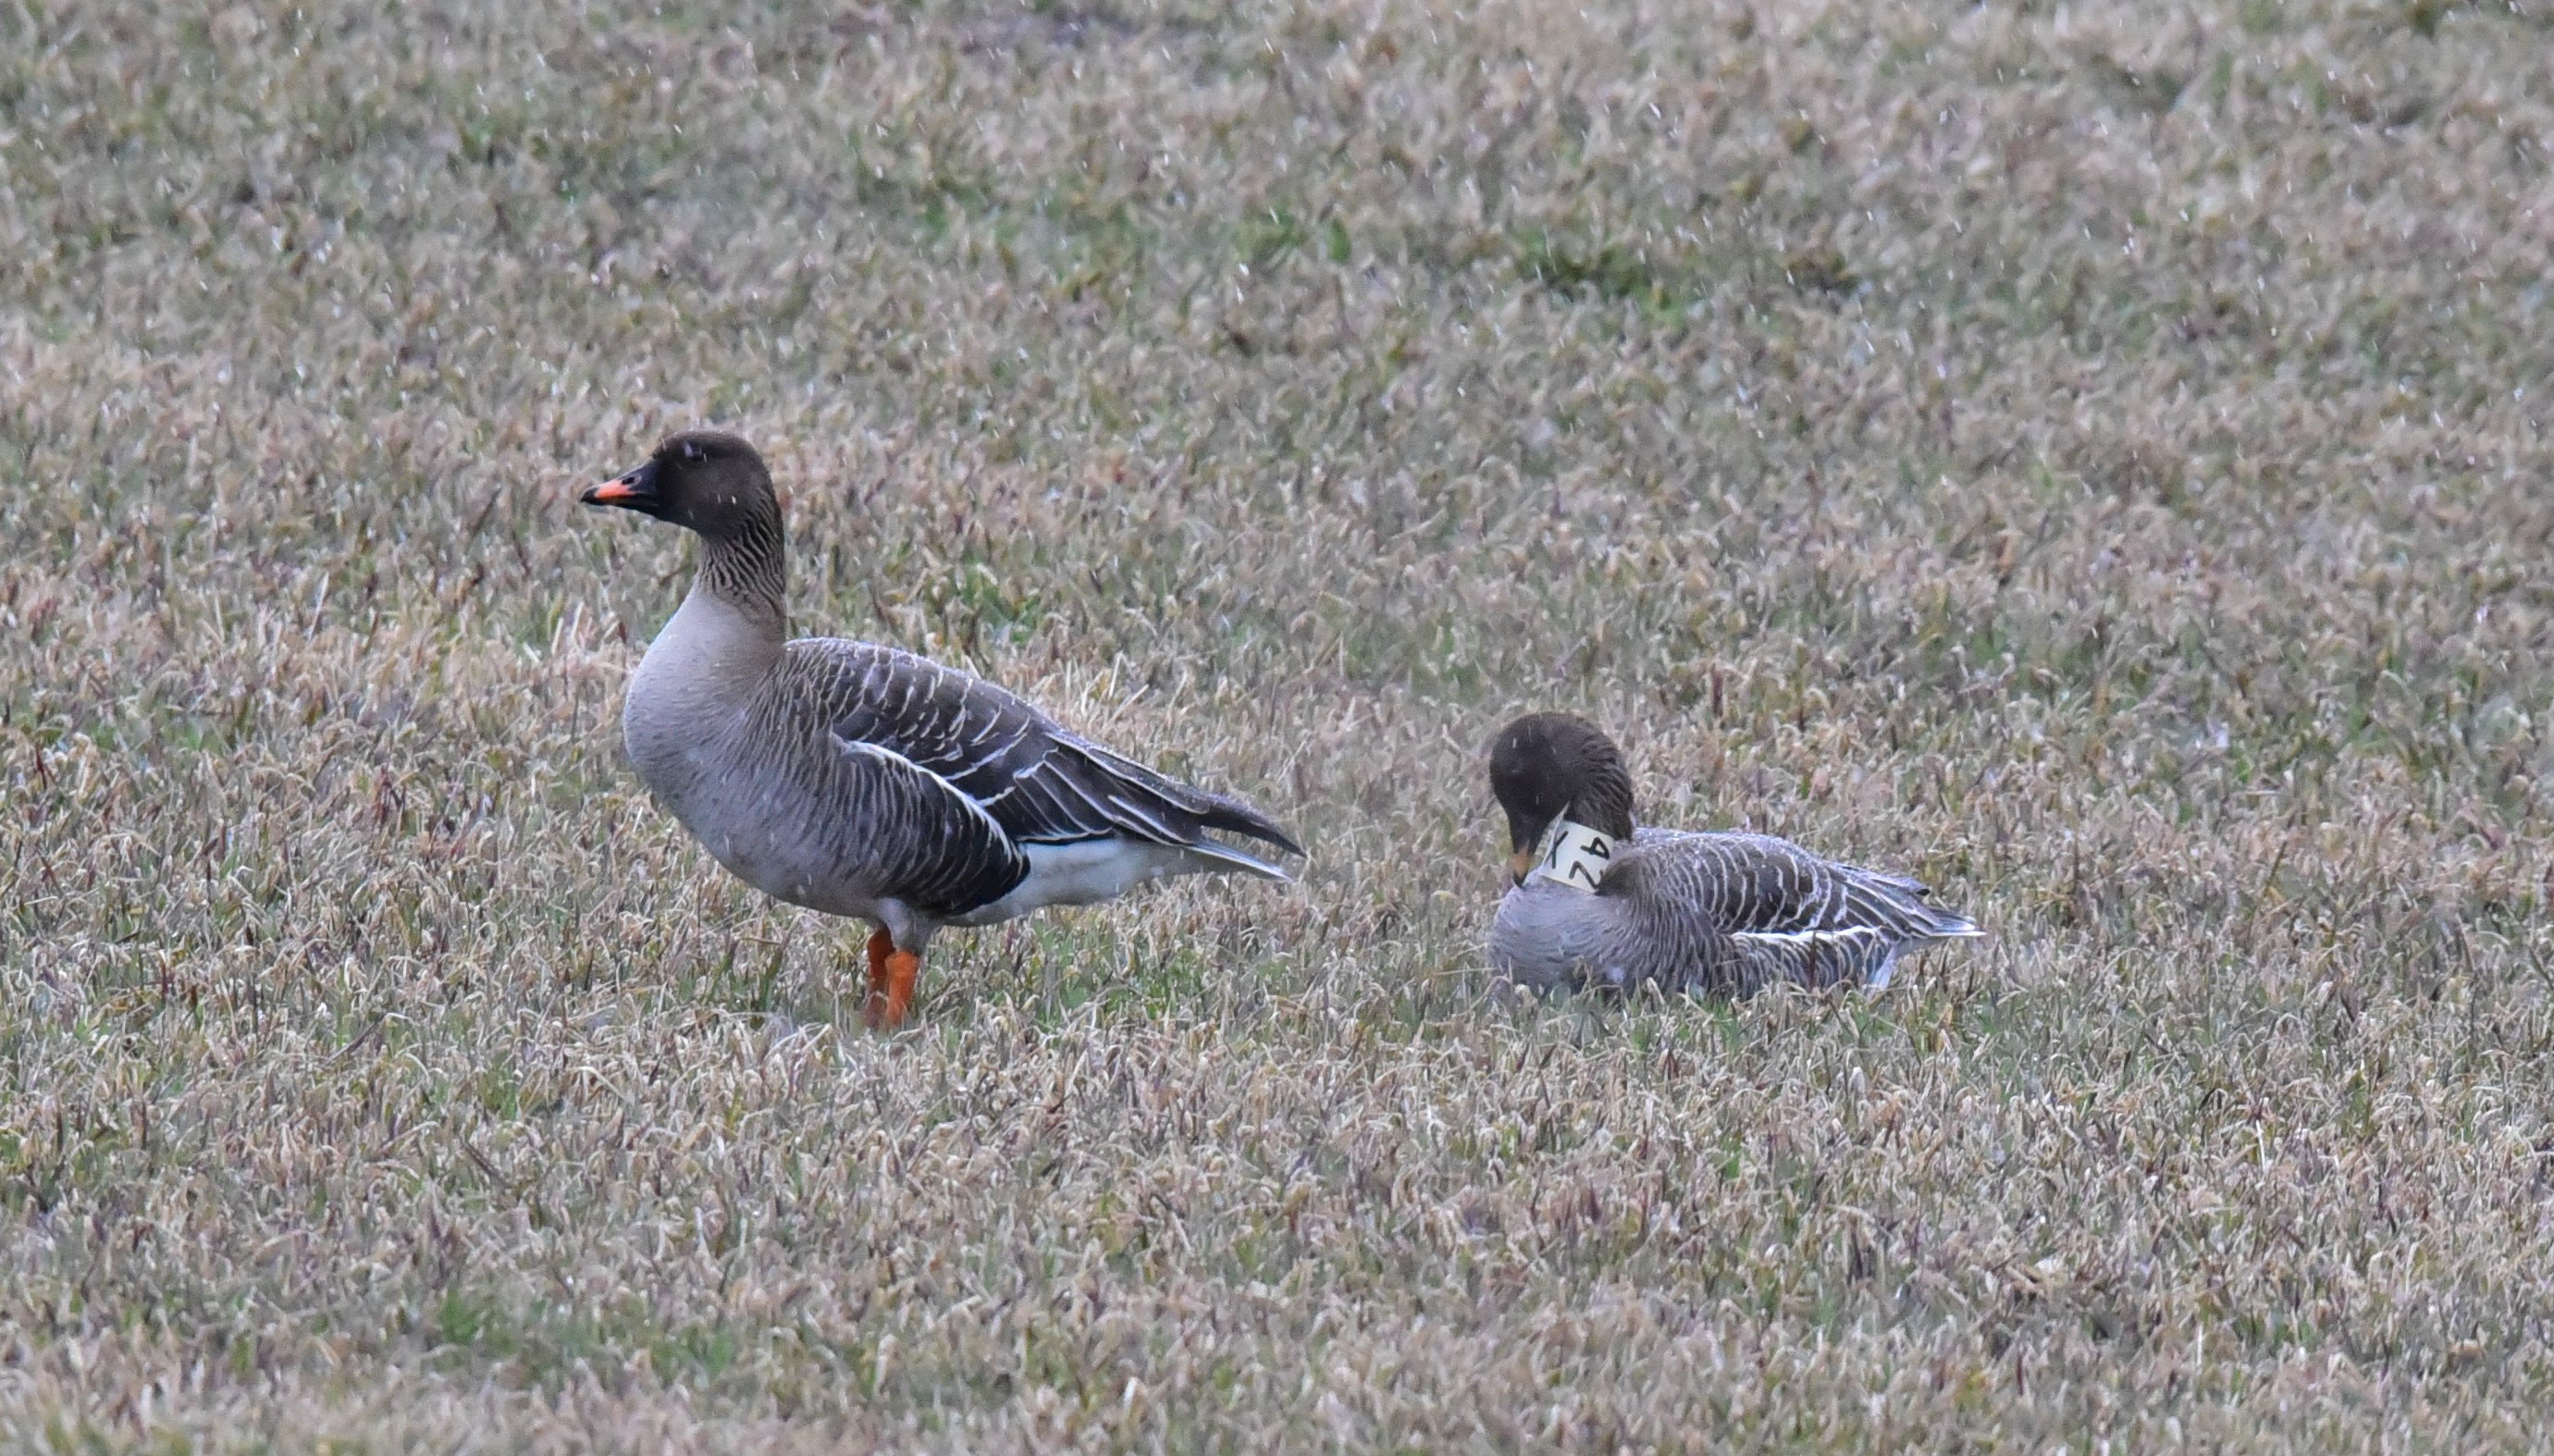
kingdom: Animalia
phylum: Chordata
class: Aves
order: Anseriformes
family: Anatidae
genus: Anser
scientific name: Anser fabalis
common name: Bean goose
